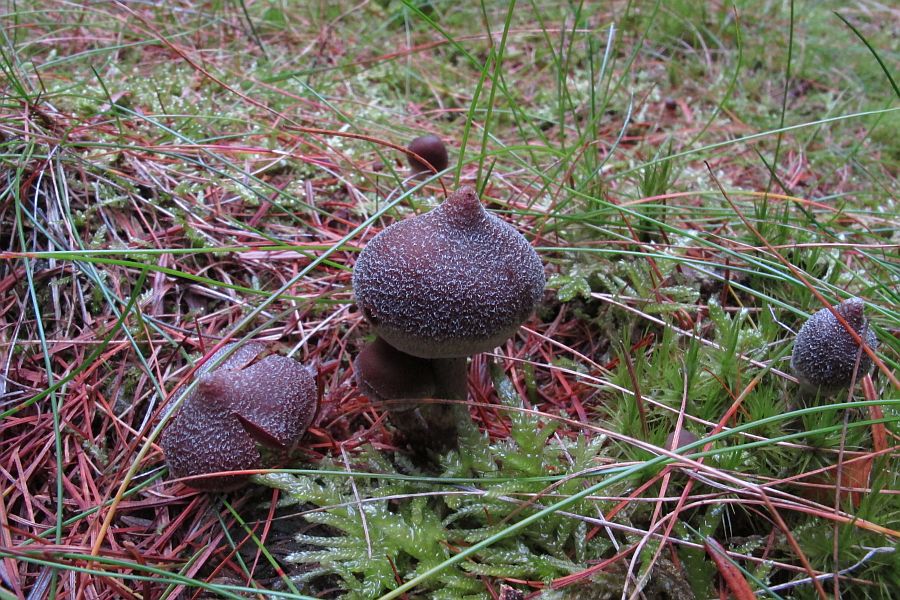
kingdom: Fungi
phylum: Basidiomycota
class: Agaricomycetes
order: Agaricales
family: Cortinariaceae
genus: Cortinarius
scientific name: Cortinarius
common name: pelargonie-slørhat
